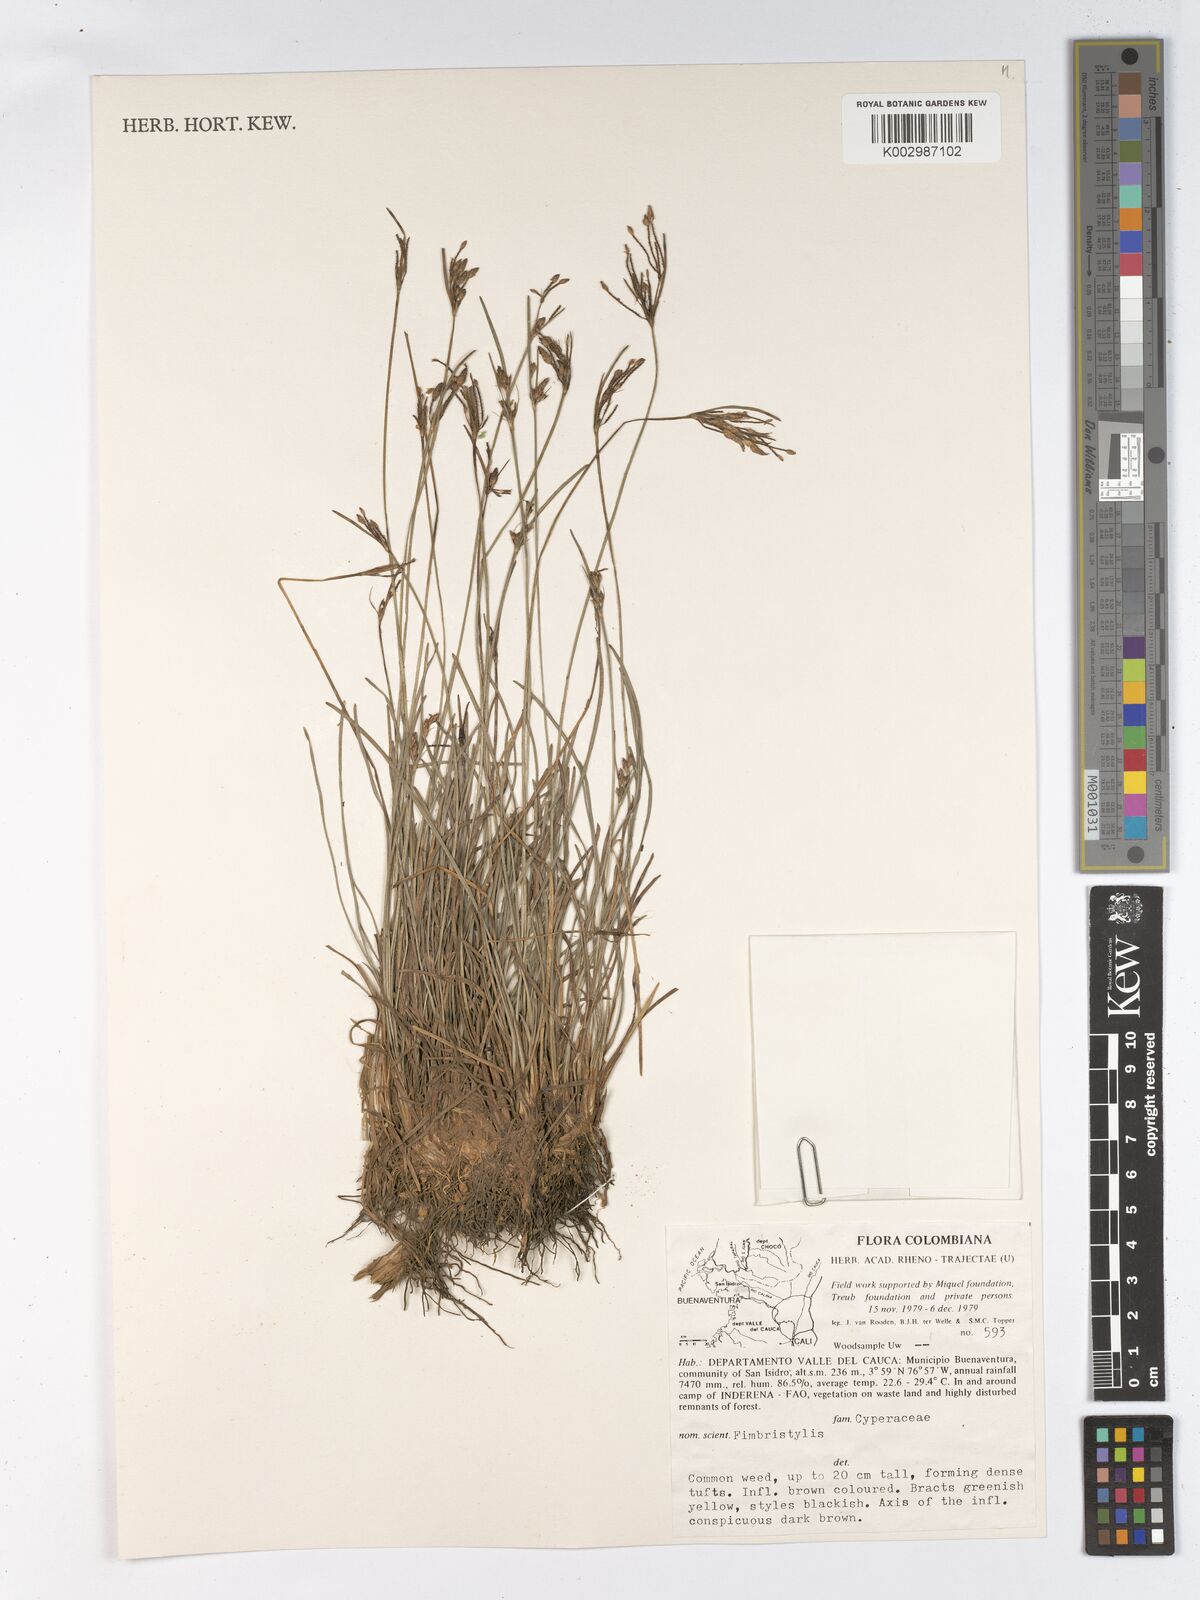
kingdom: Plantae
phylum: Tracheophyta
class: Liliopsida
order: Poales
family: Cyperaceae
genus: Fimbristylis
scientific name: Fimbristylis
